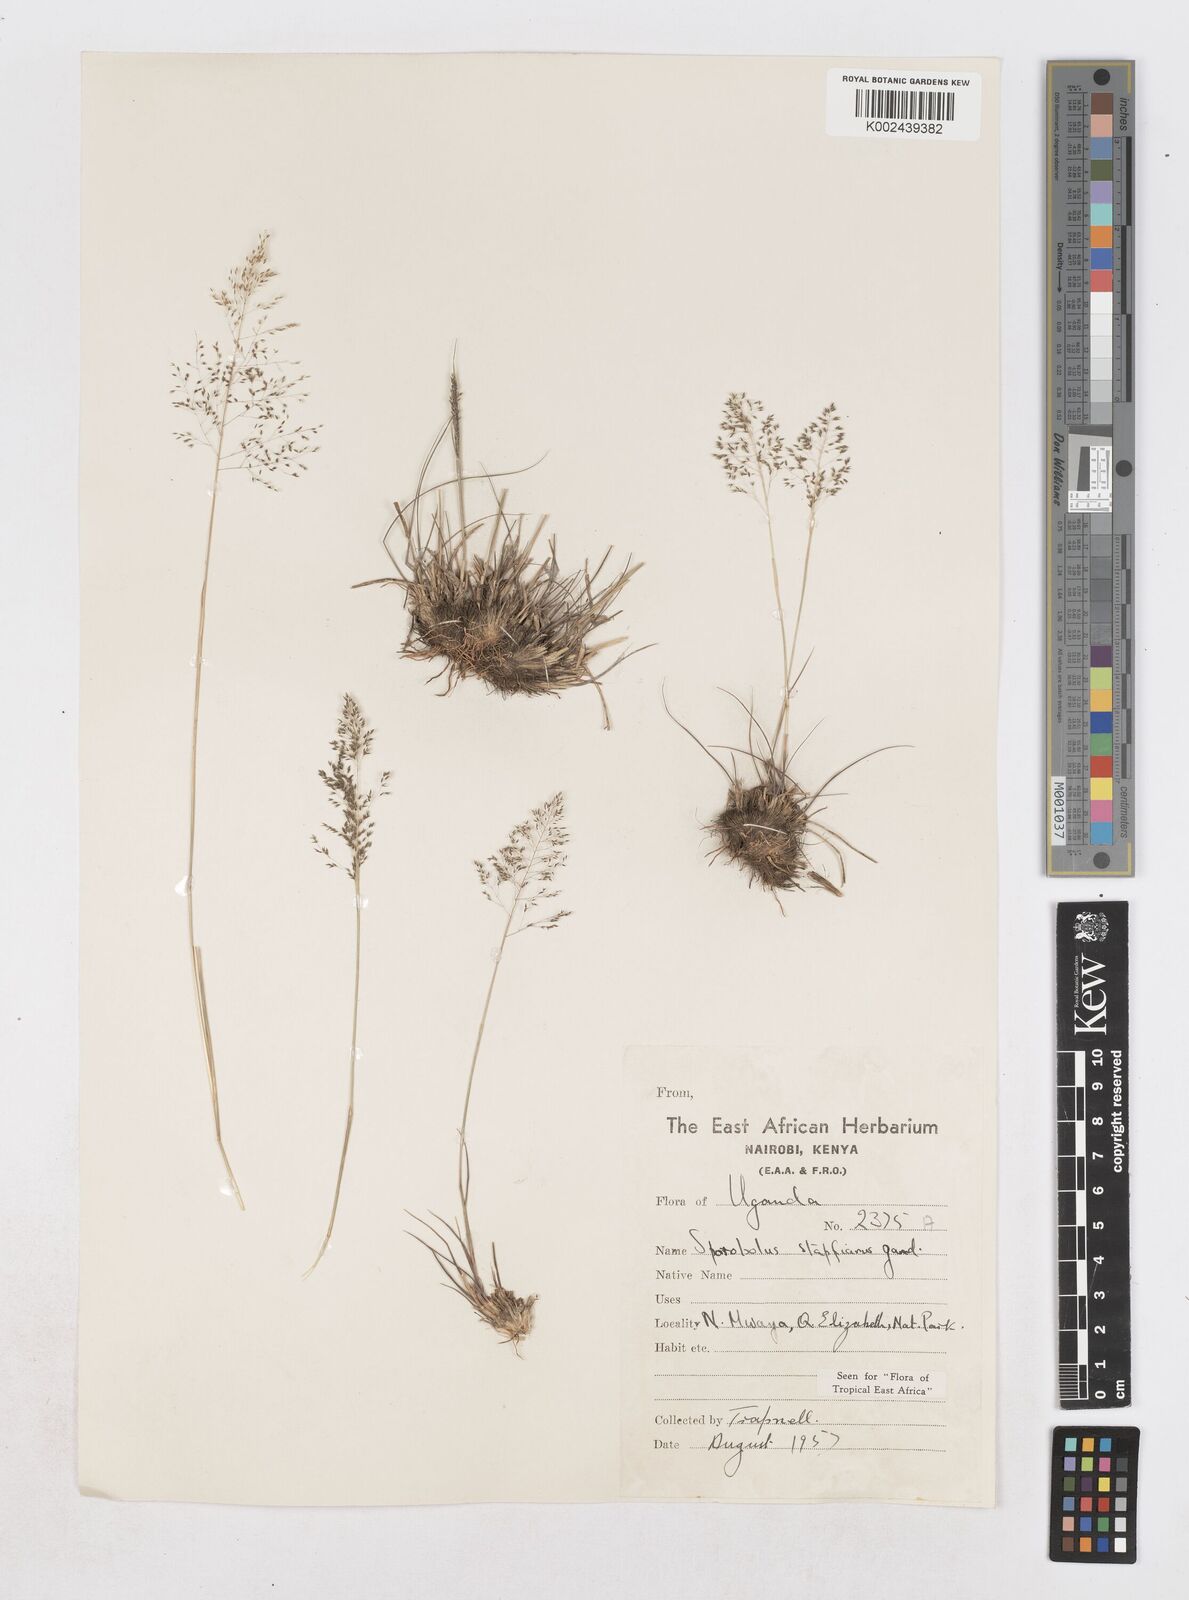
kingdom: Plantae
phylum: Tracheophyta
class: Liliopsida
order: Poales
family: Poaceae
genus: Sporobolus
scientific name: Sporobolus stapfianus
